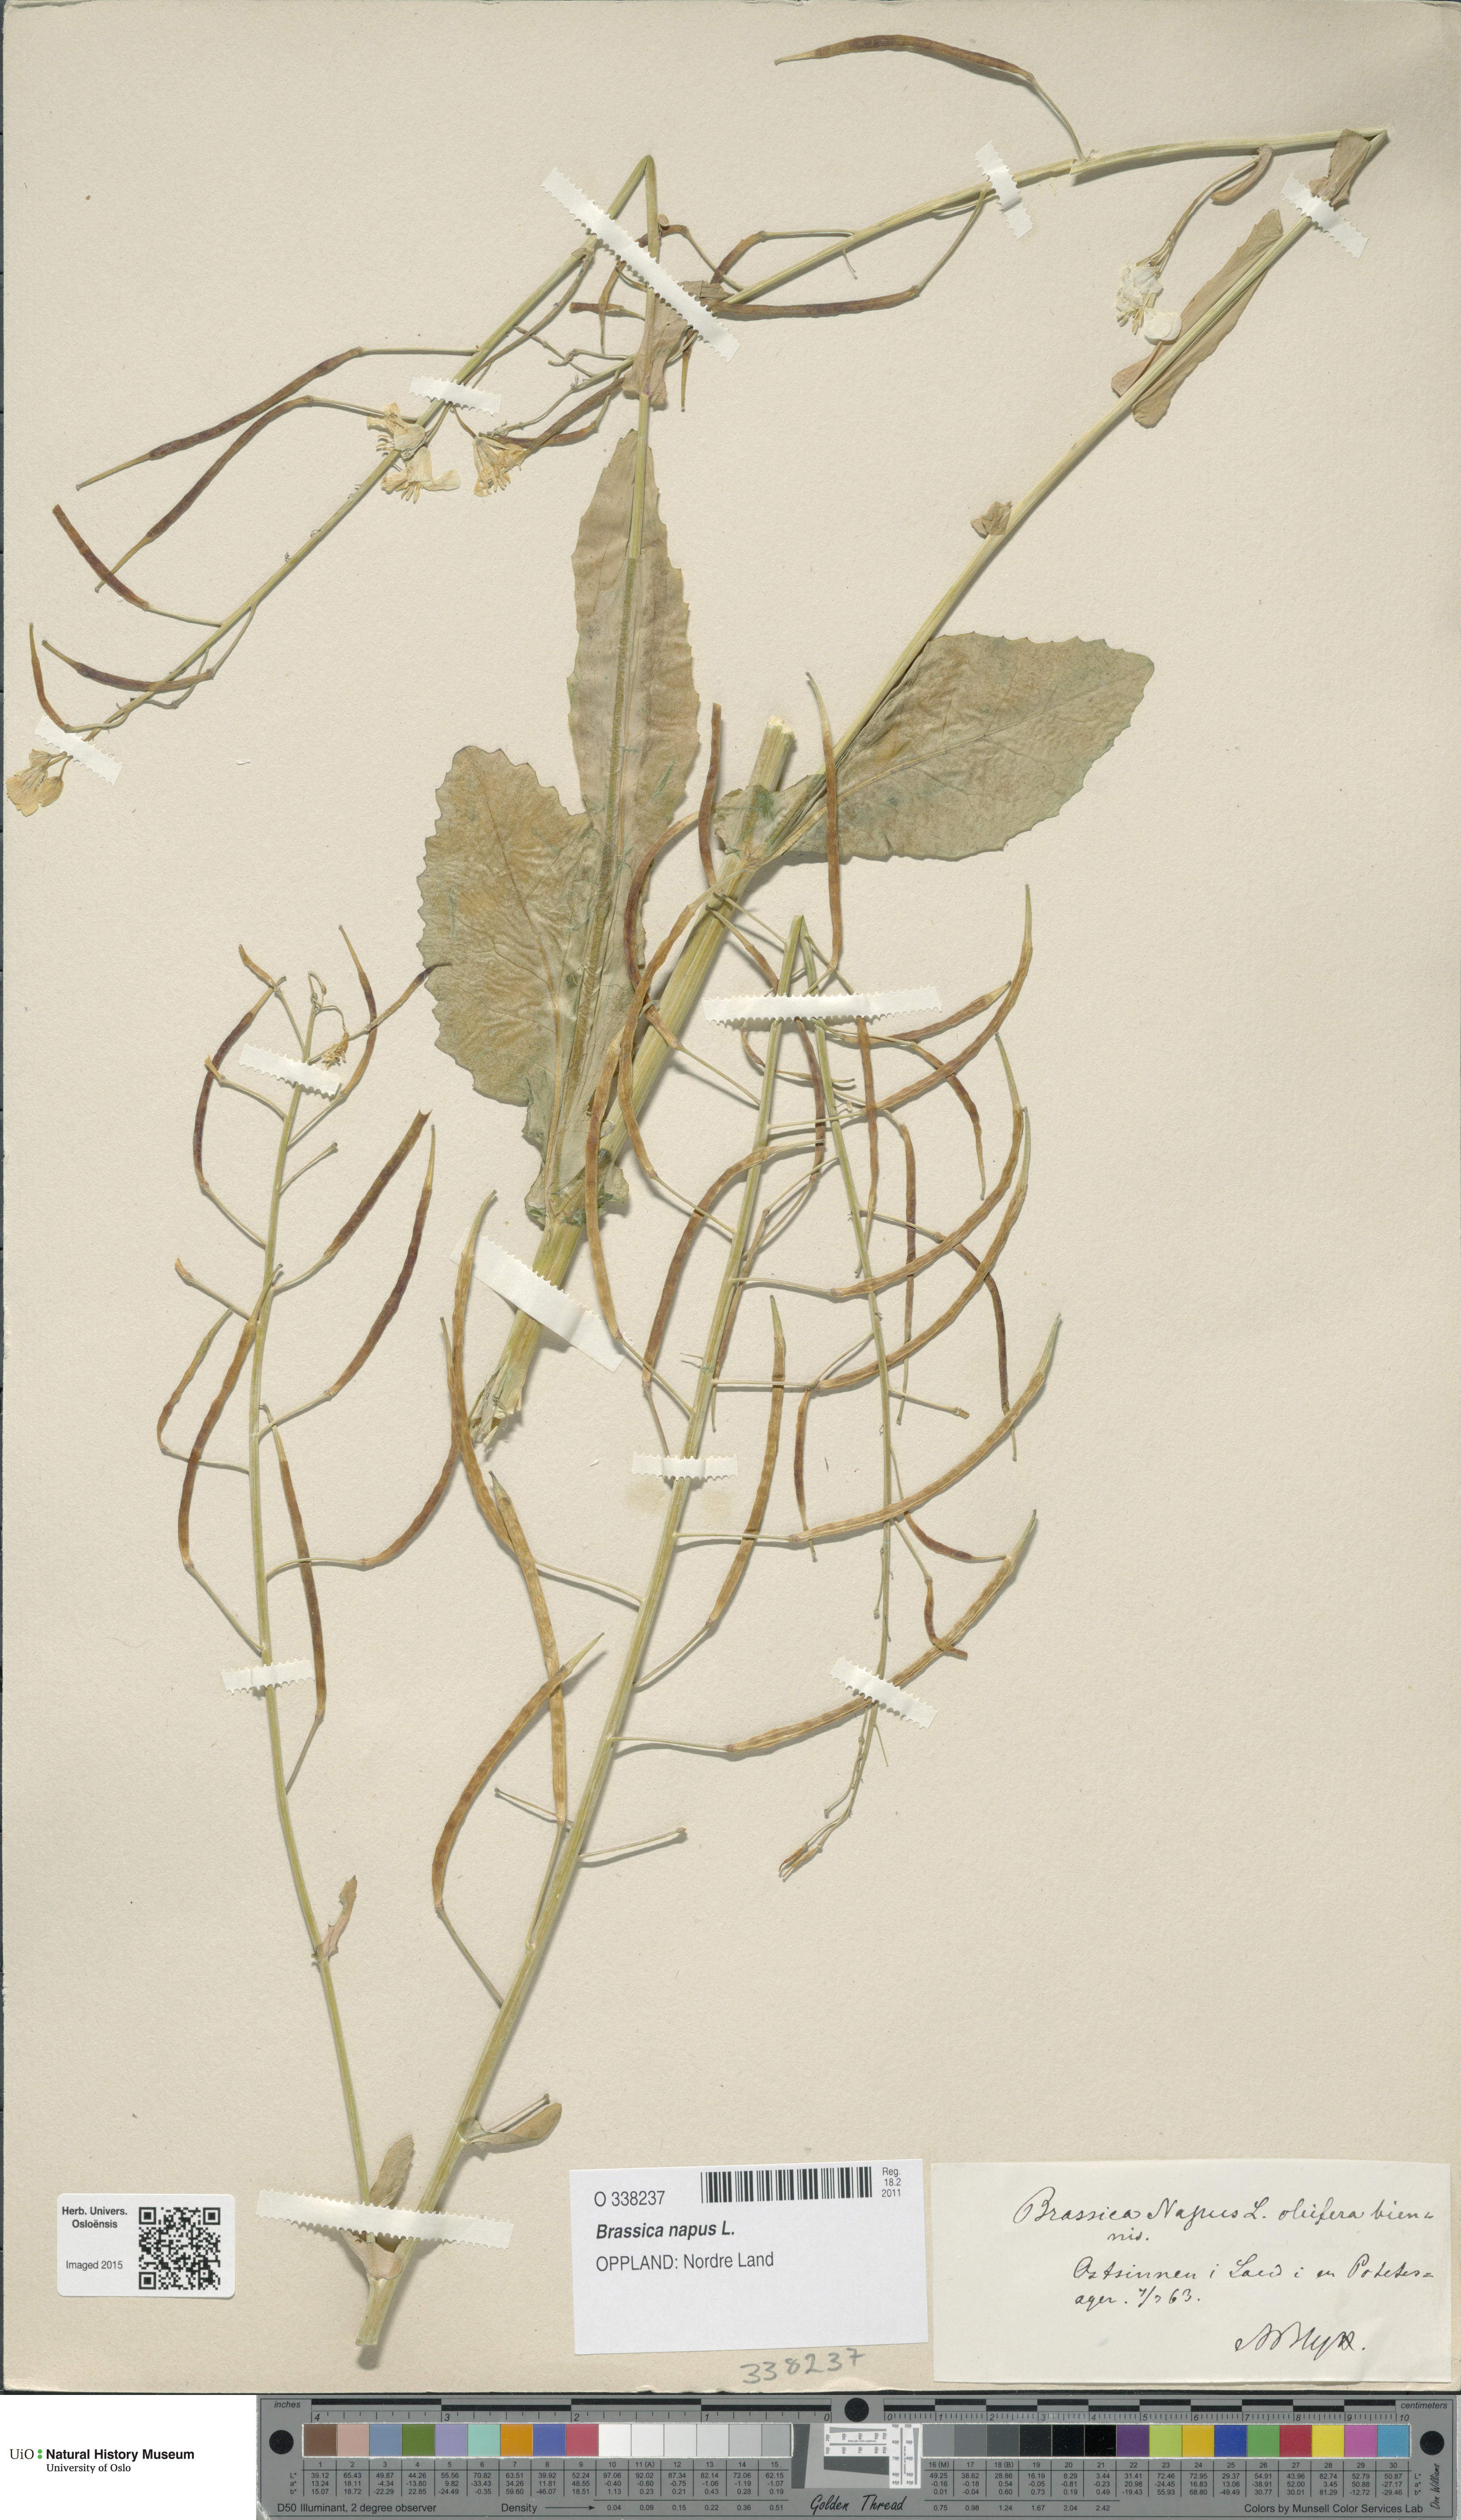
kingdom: Plantae
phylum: Tracheophyta
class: Magnoliopsida
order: Brassicales
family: Brassicaceae
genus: Brassica
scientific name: Brassica napus
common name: Rape
